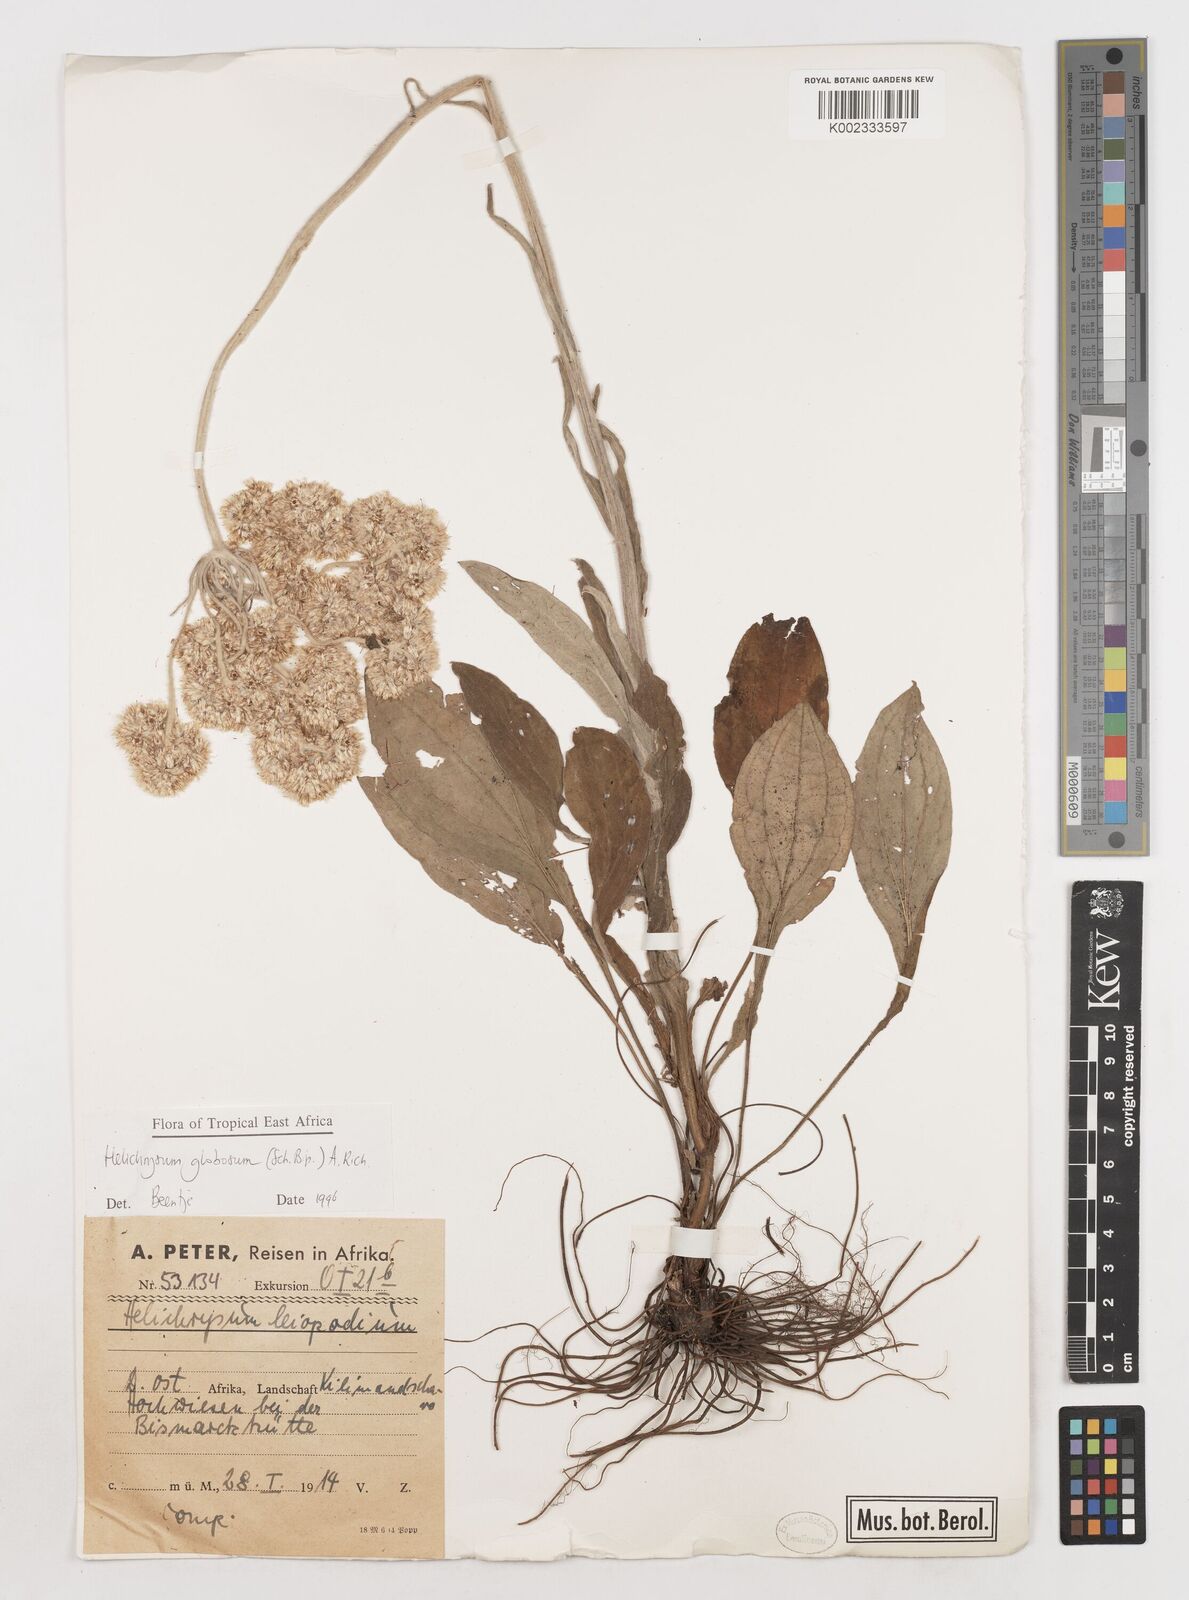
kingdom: Plantae
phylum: Tracheophyta
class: Magnoliopsida
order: Asterales
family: Asteraceae
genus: Helichrysum
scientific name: Helichrysum globosum
